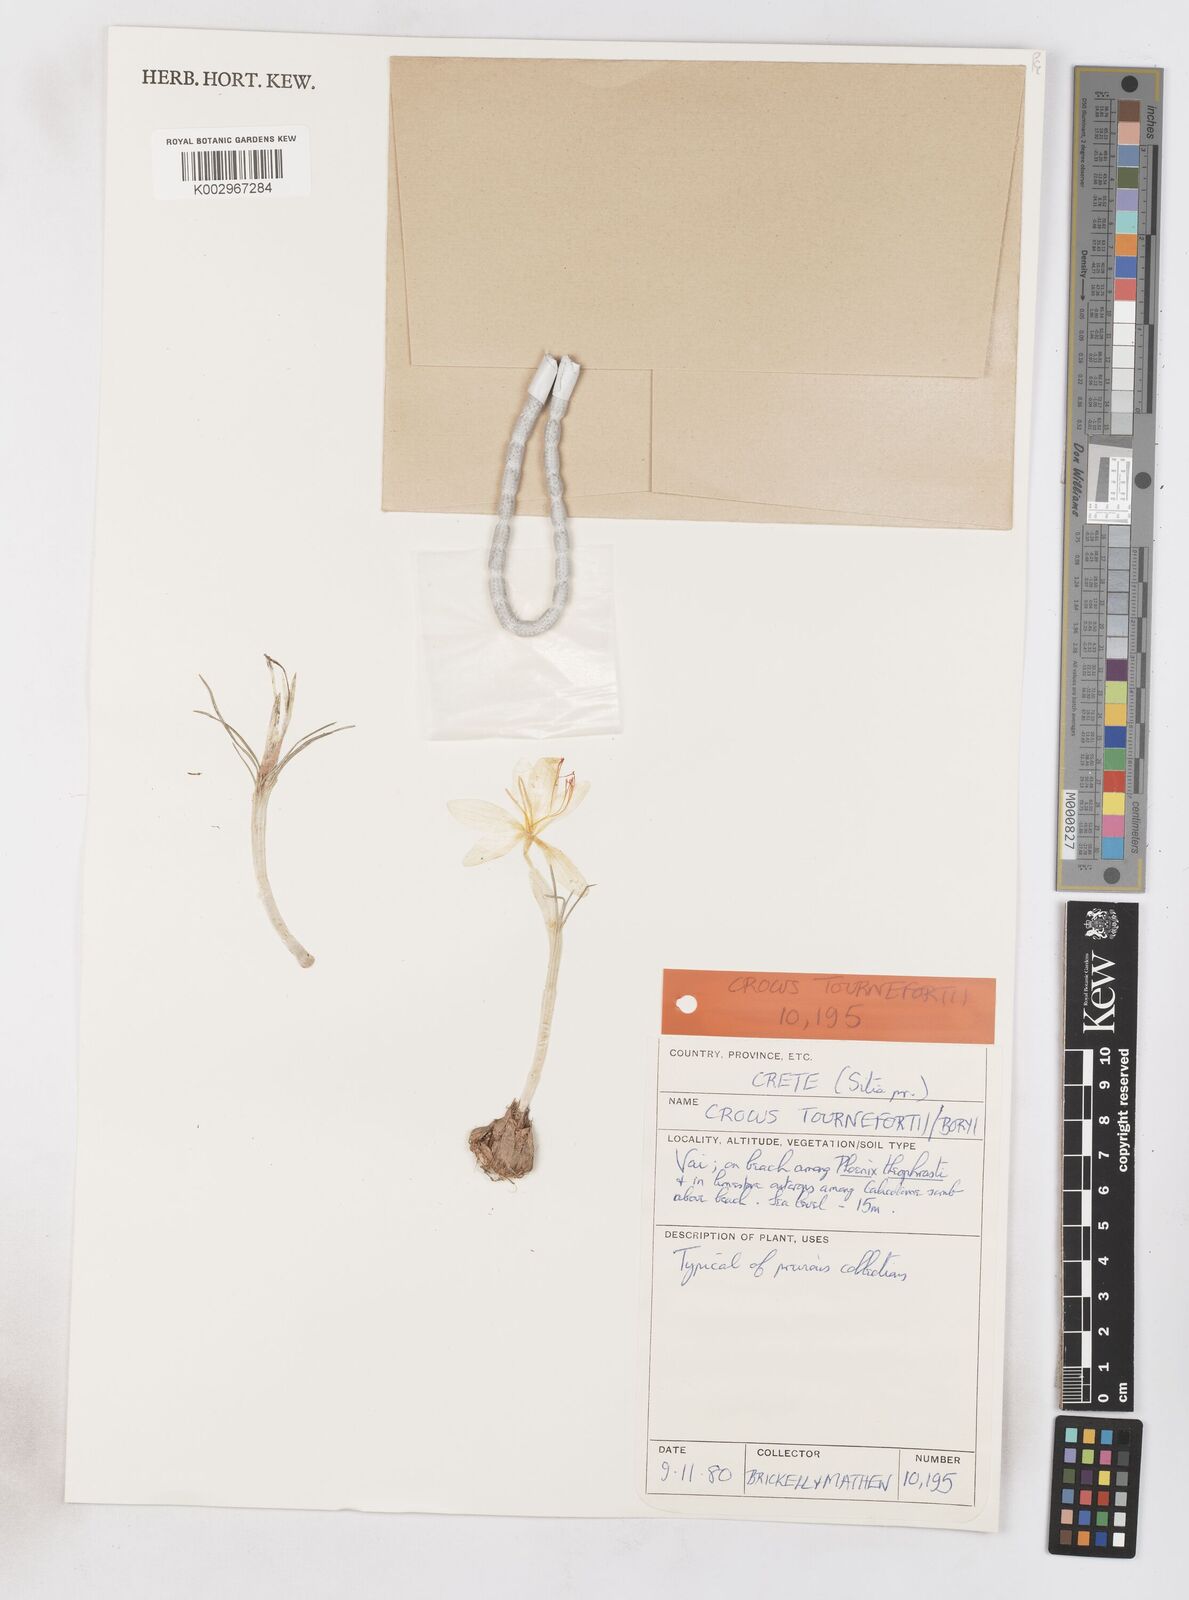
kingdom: Plantae
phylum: Tracheophyta
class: Liliopsida
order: Asparagales
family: Iridaceae
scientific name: Iridaceae
